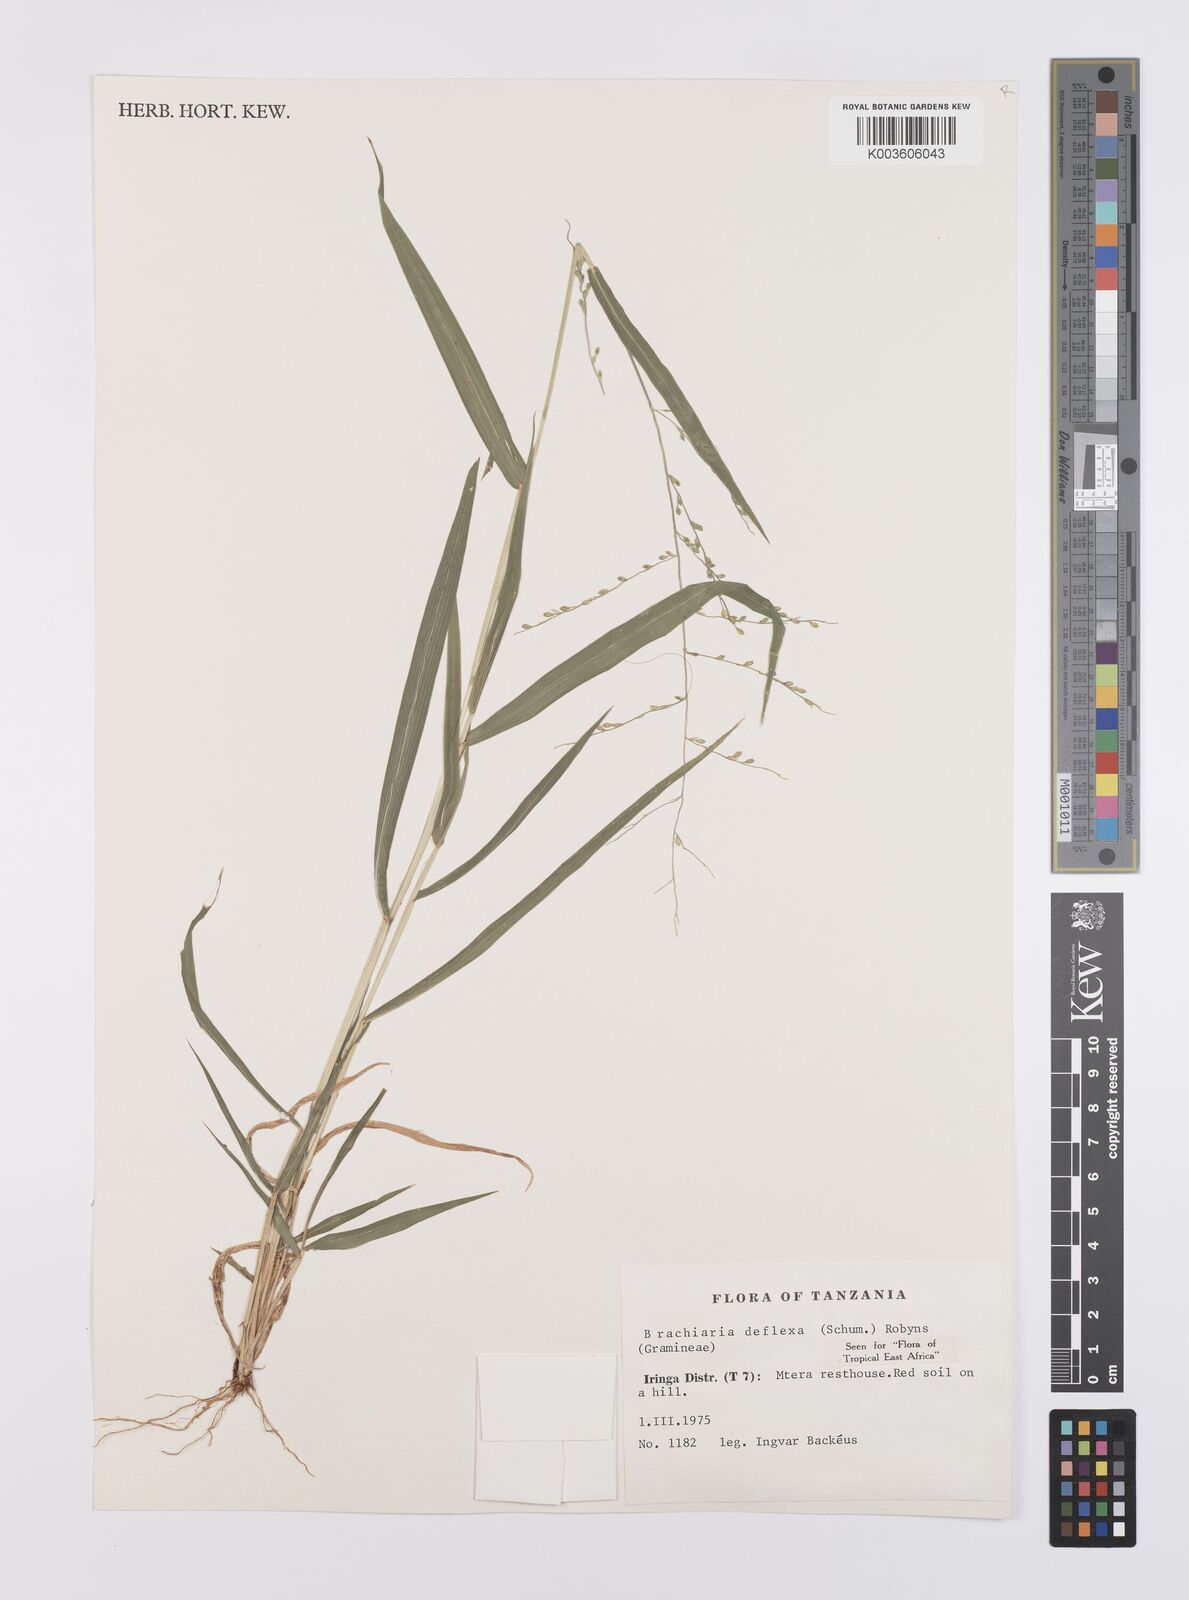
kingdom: Plantae
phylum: Tracheophyta
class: Liliopsida
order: Poales
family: Poaceae
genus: Urochloa
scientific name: Urochloa deflexa
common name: Guinea millet
